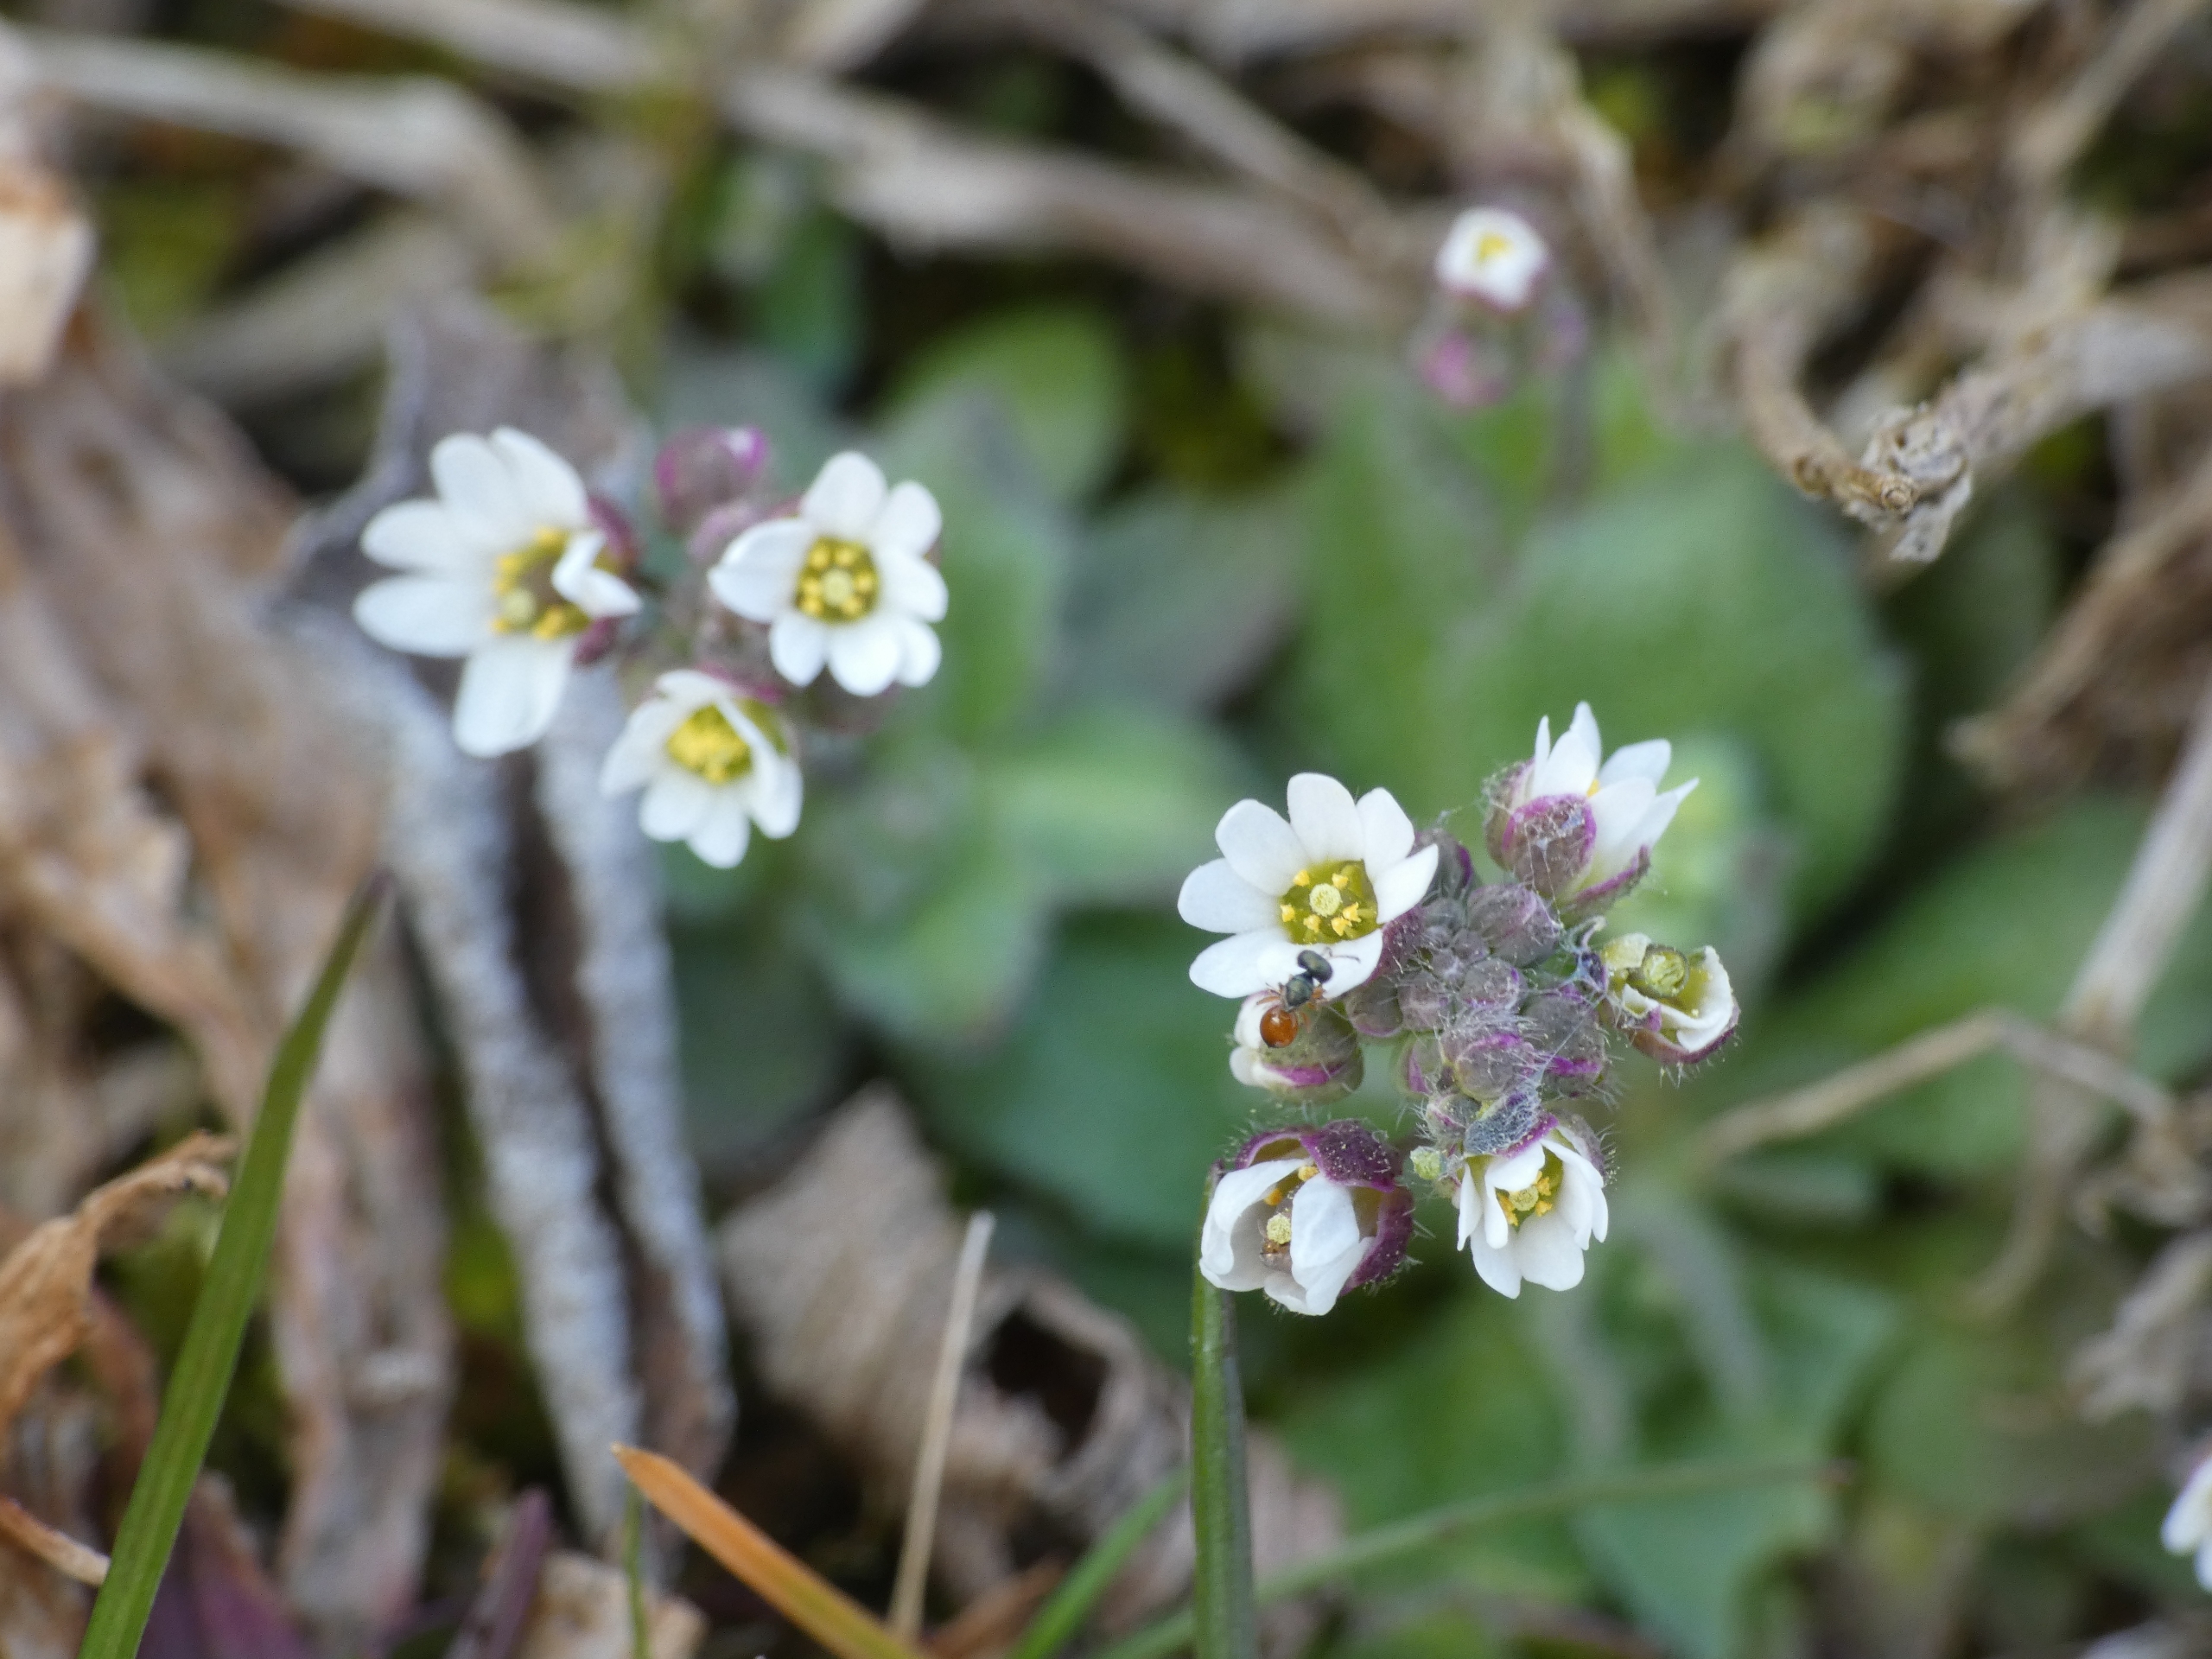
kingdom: Plantae
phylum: Tracheophyta
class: Magnoliopsida
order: Brassicales
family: Brassicaceae
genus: Draba
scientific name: Draba verna
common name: Vår-gæslingeblomst
